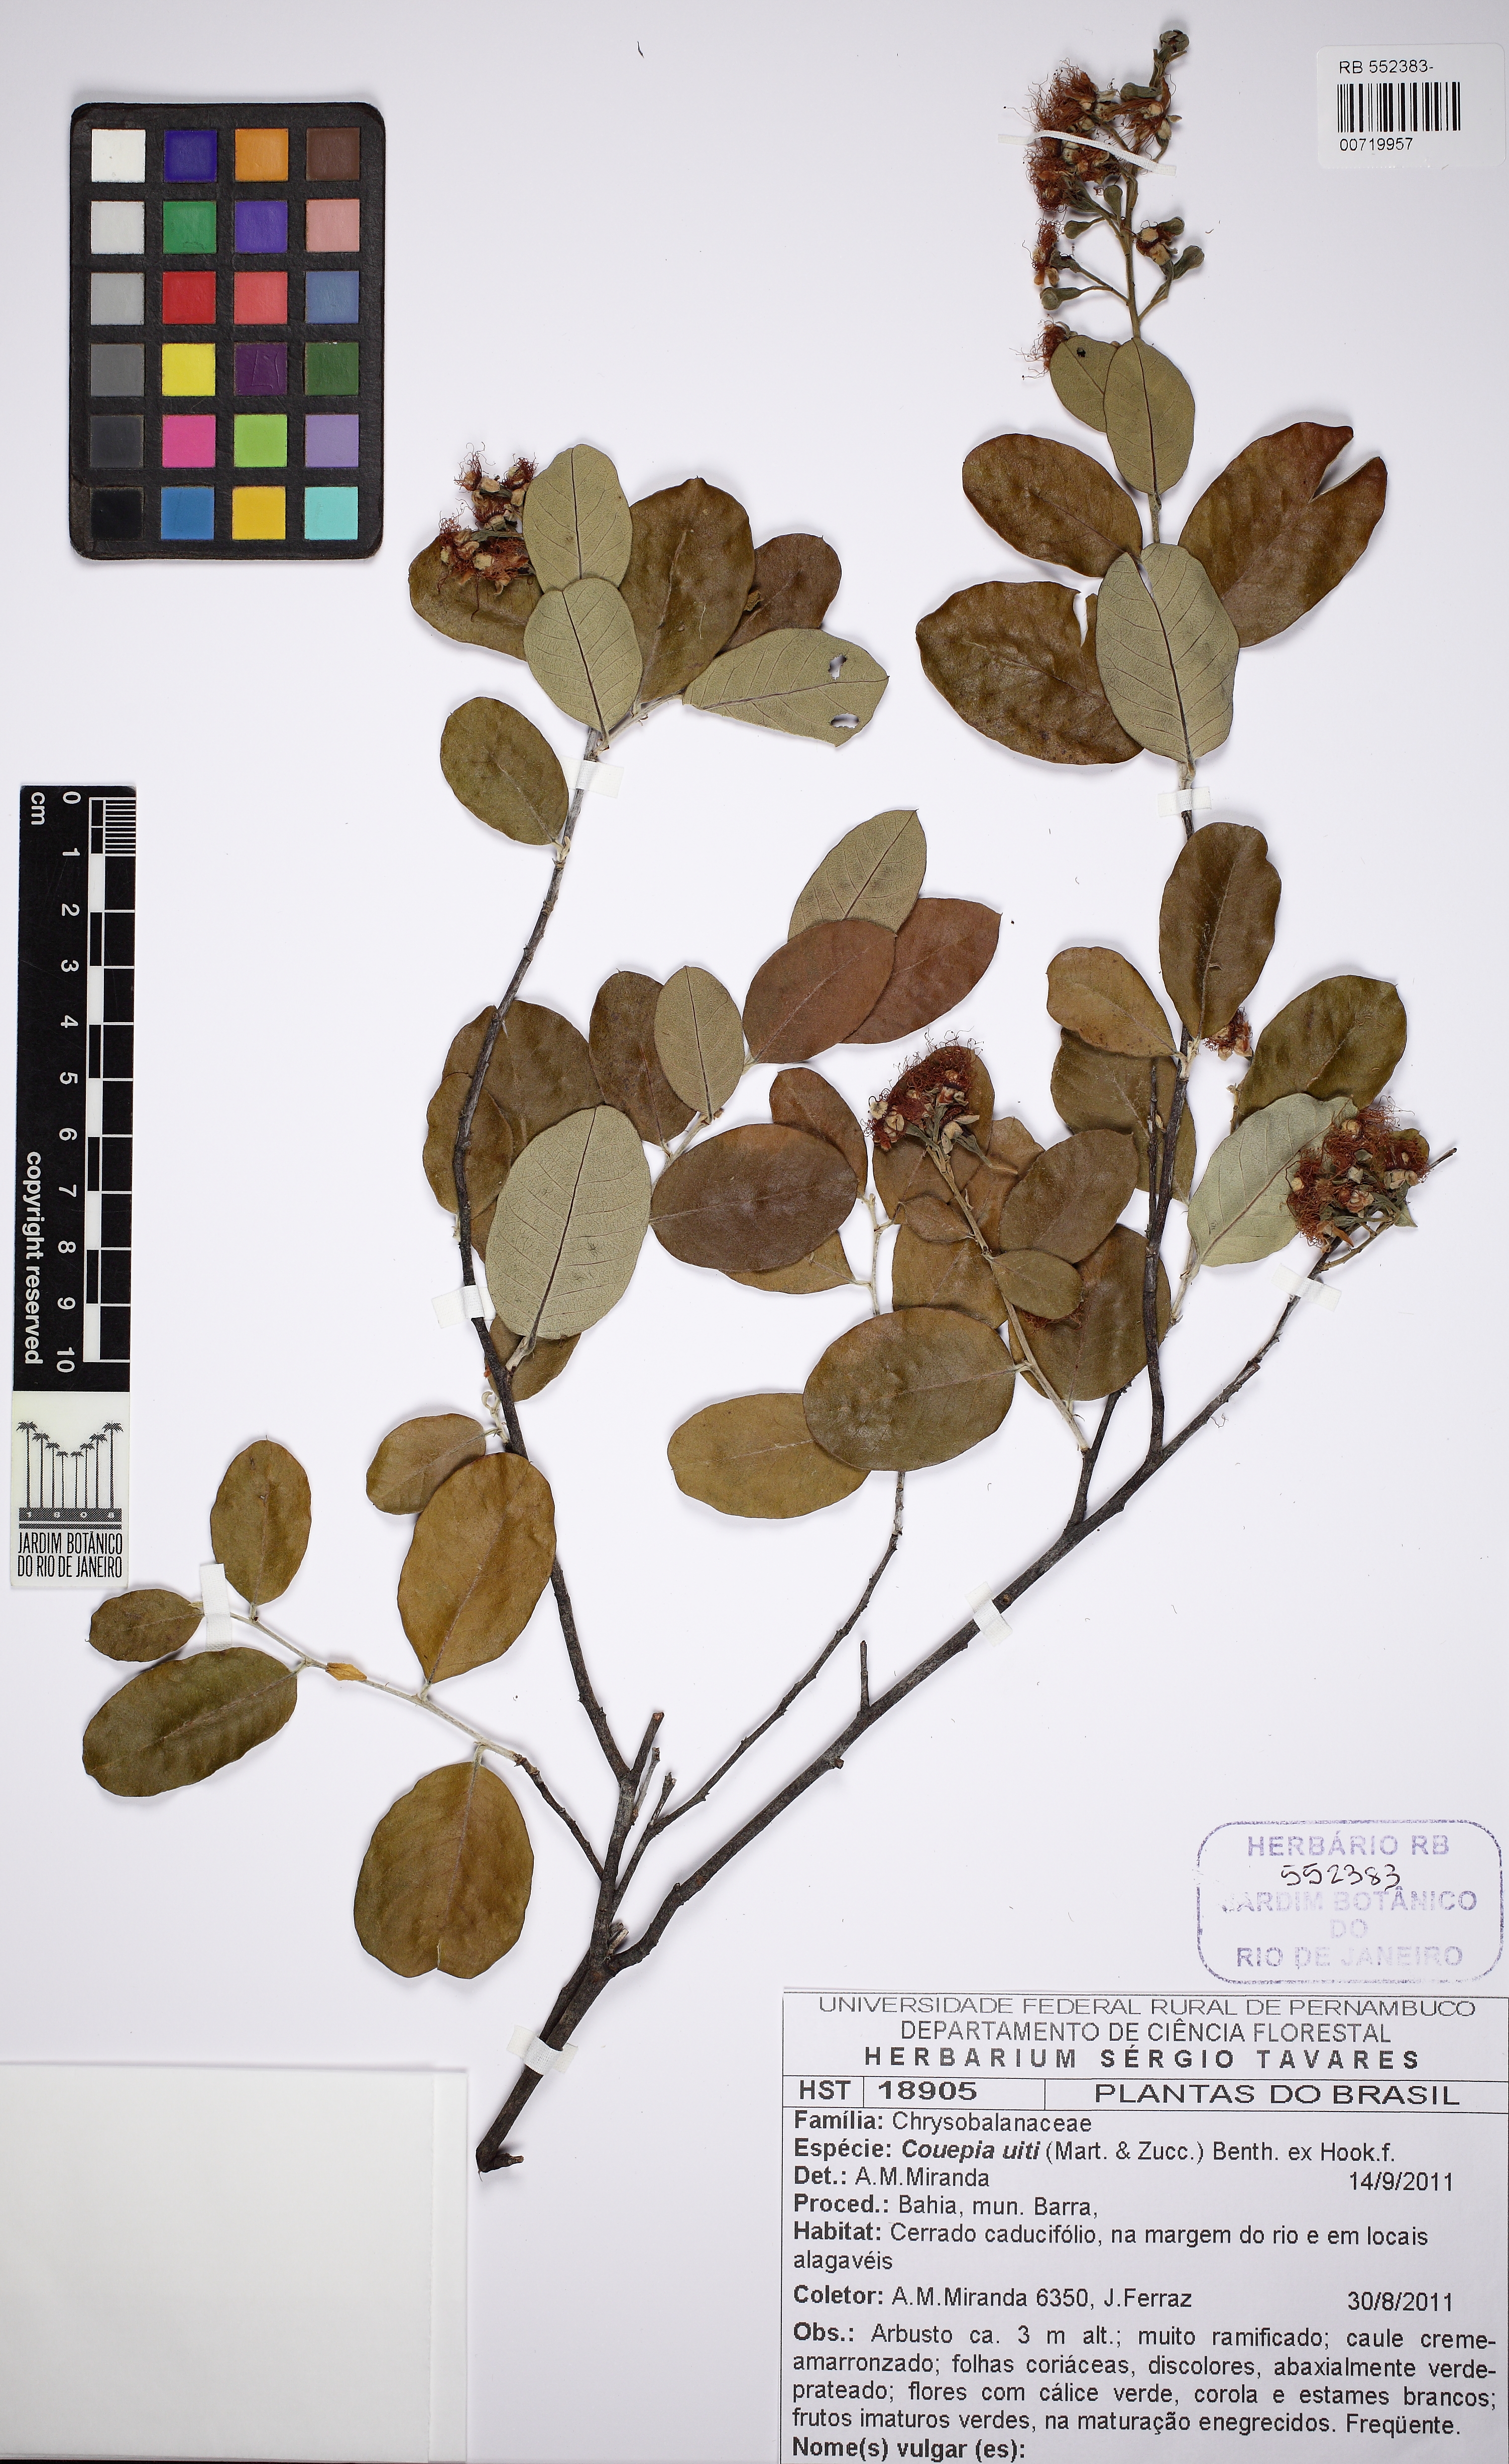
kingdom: Plantae
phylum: Tracheophyta
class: Magnoliopsida
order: Malpighiales
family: Chrysobalanaceae
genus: Couepia
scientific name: Couepia uiti
